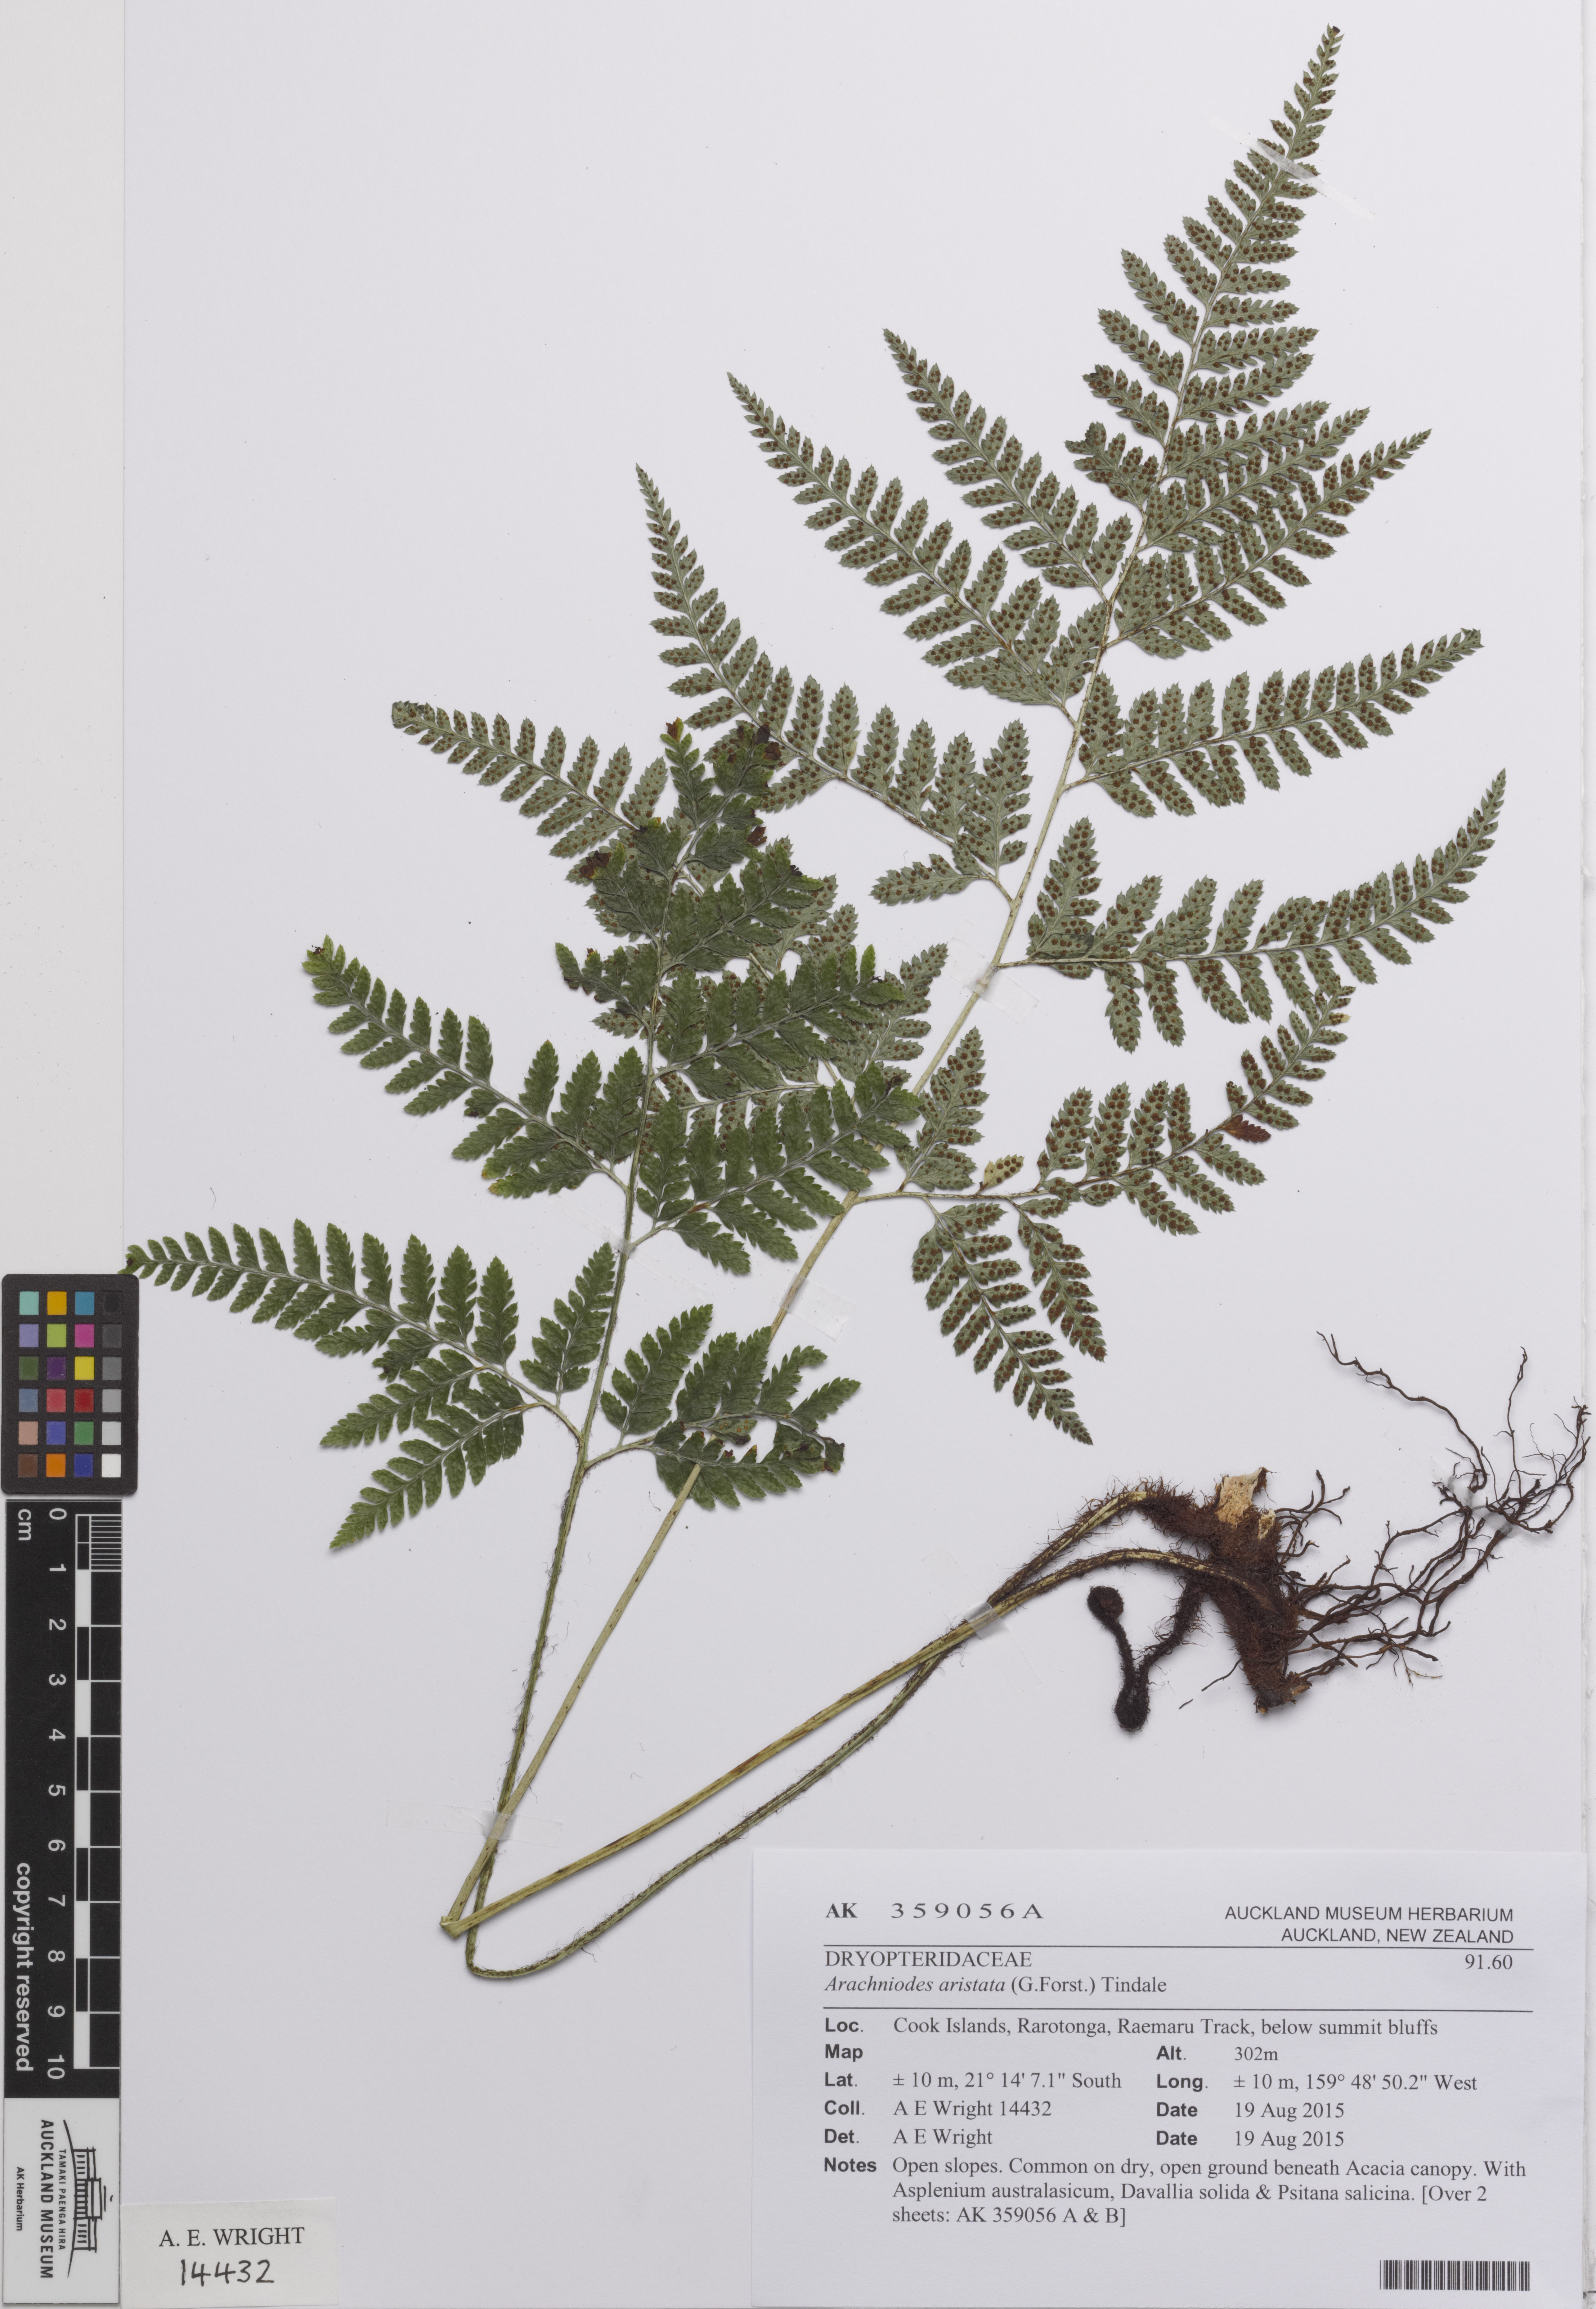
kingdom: Plantae
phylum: Tracheophyta
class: Polypodiopsida
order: Polypodiales
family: Dryopteridaceae
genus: Arachniodes
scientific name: Arachniodes aristata
